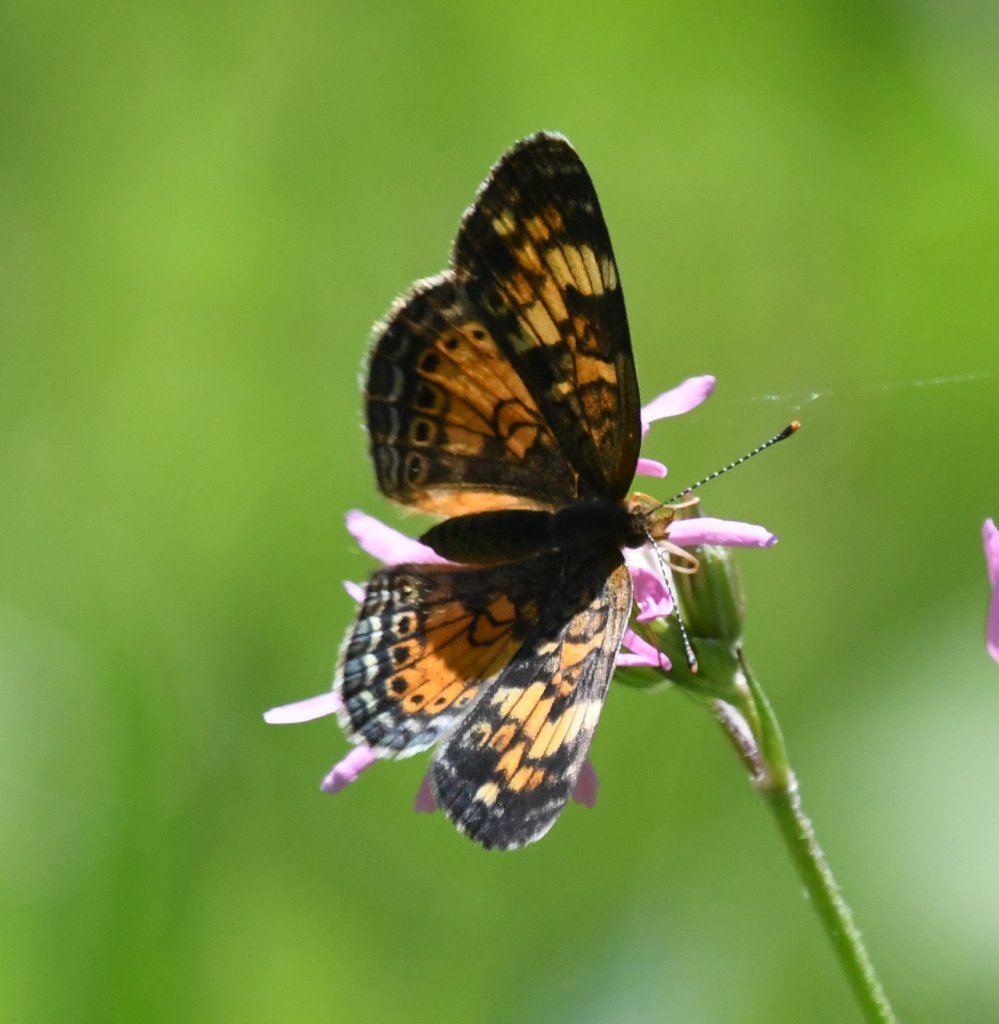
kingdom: Animalia
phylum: Arthropoda
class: Insecta
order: Lepidoptera
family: Nymphalidae
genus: Phyciodes
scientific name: Phyciodes tharos
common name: Northern Crescent
